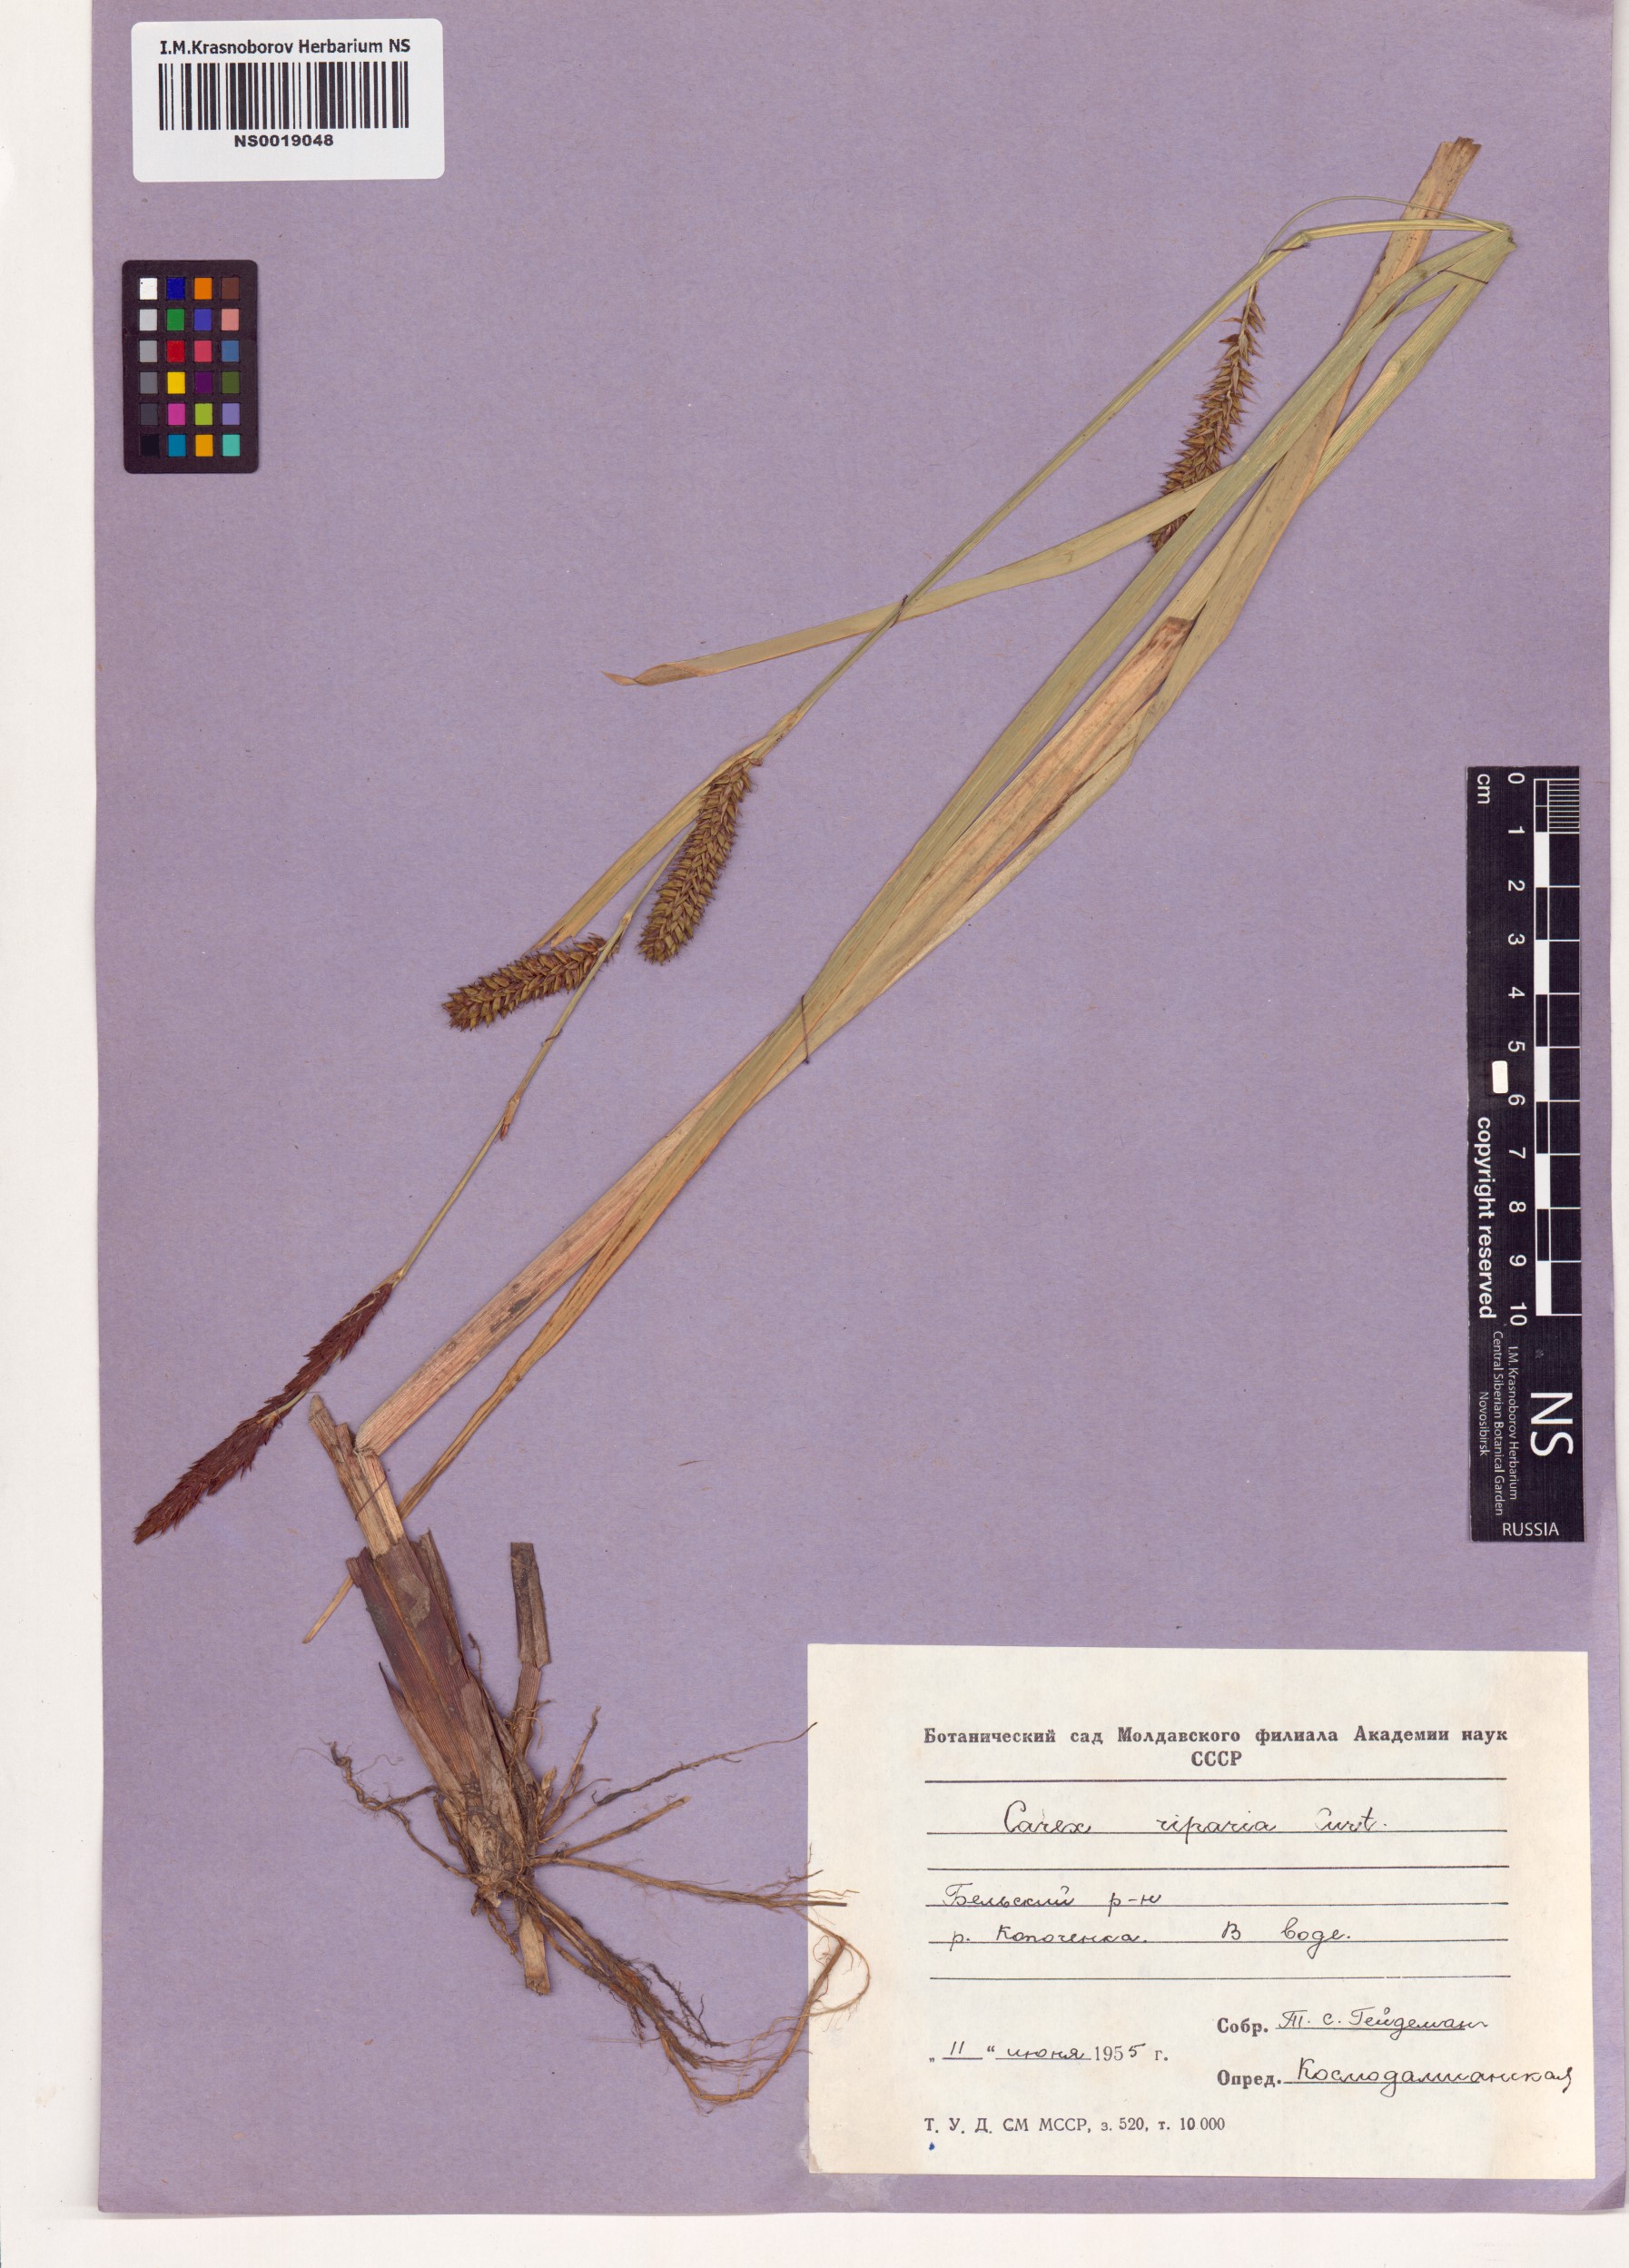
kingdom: Plantae
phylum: Tracheophyta
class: Liliopsida
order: Poales
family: Cyperaceae
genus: Carex
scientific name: Carex riparia
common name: Greater pond-sedge
